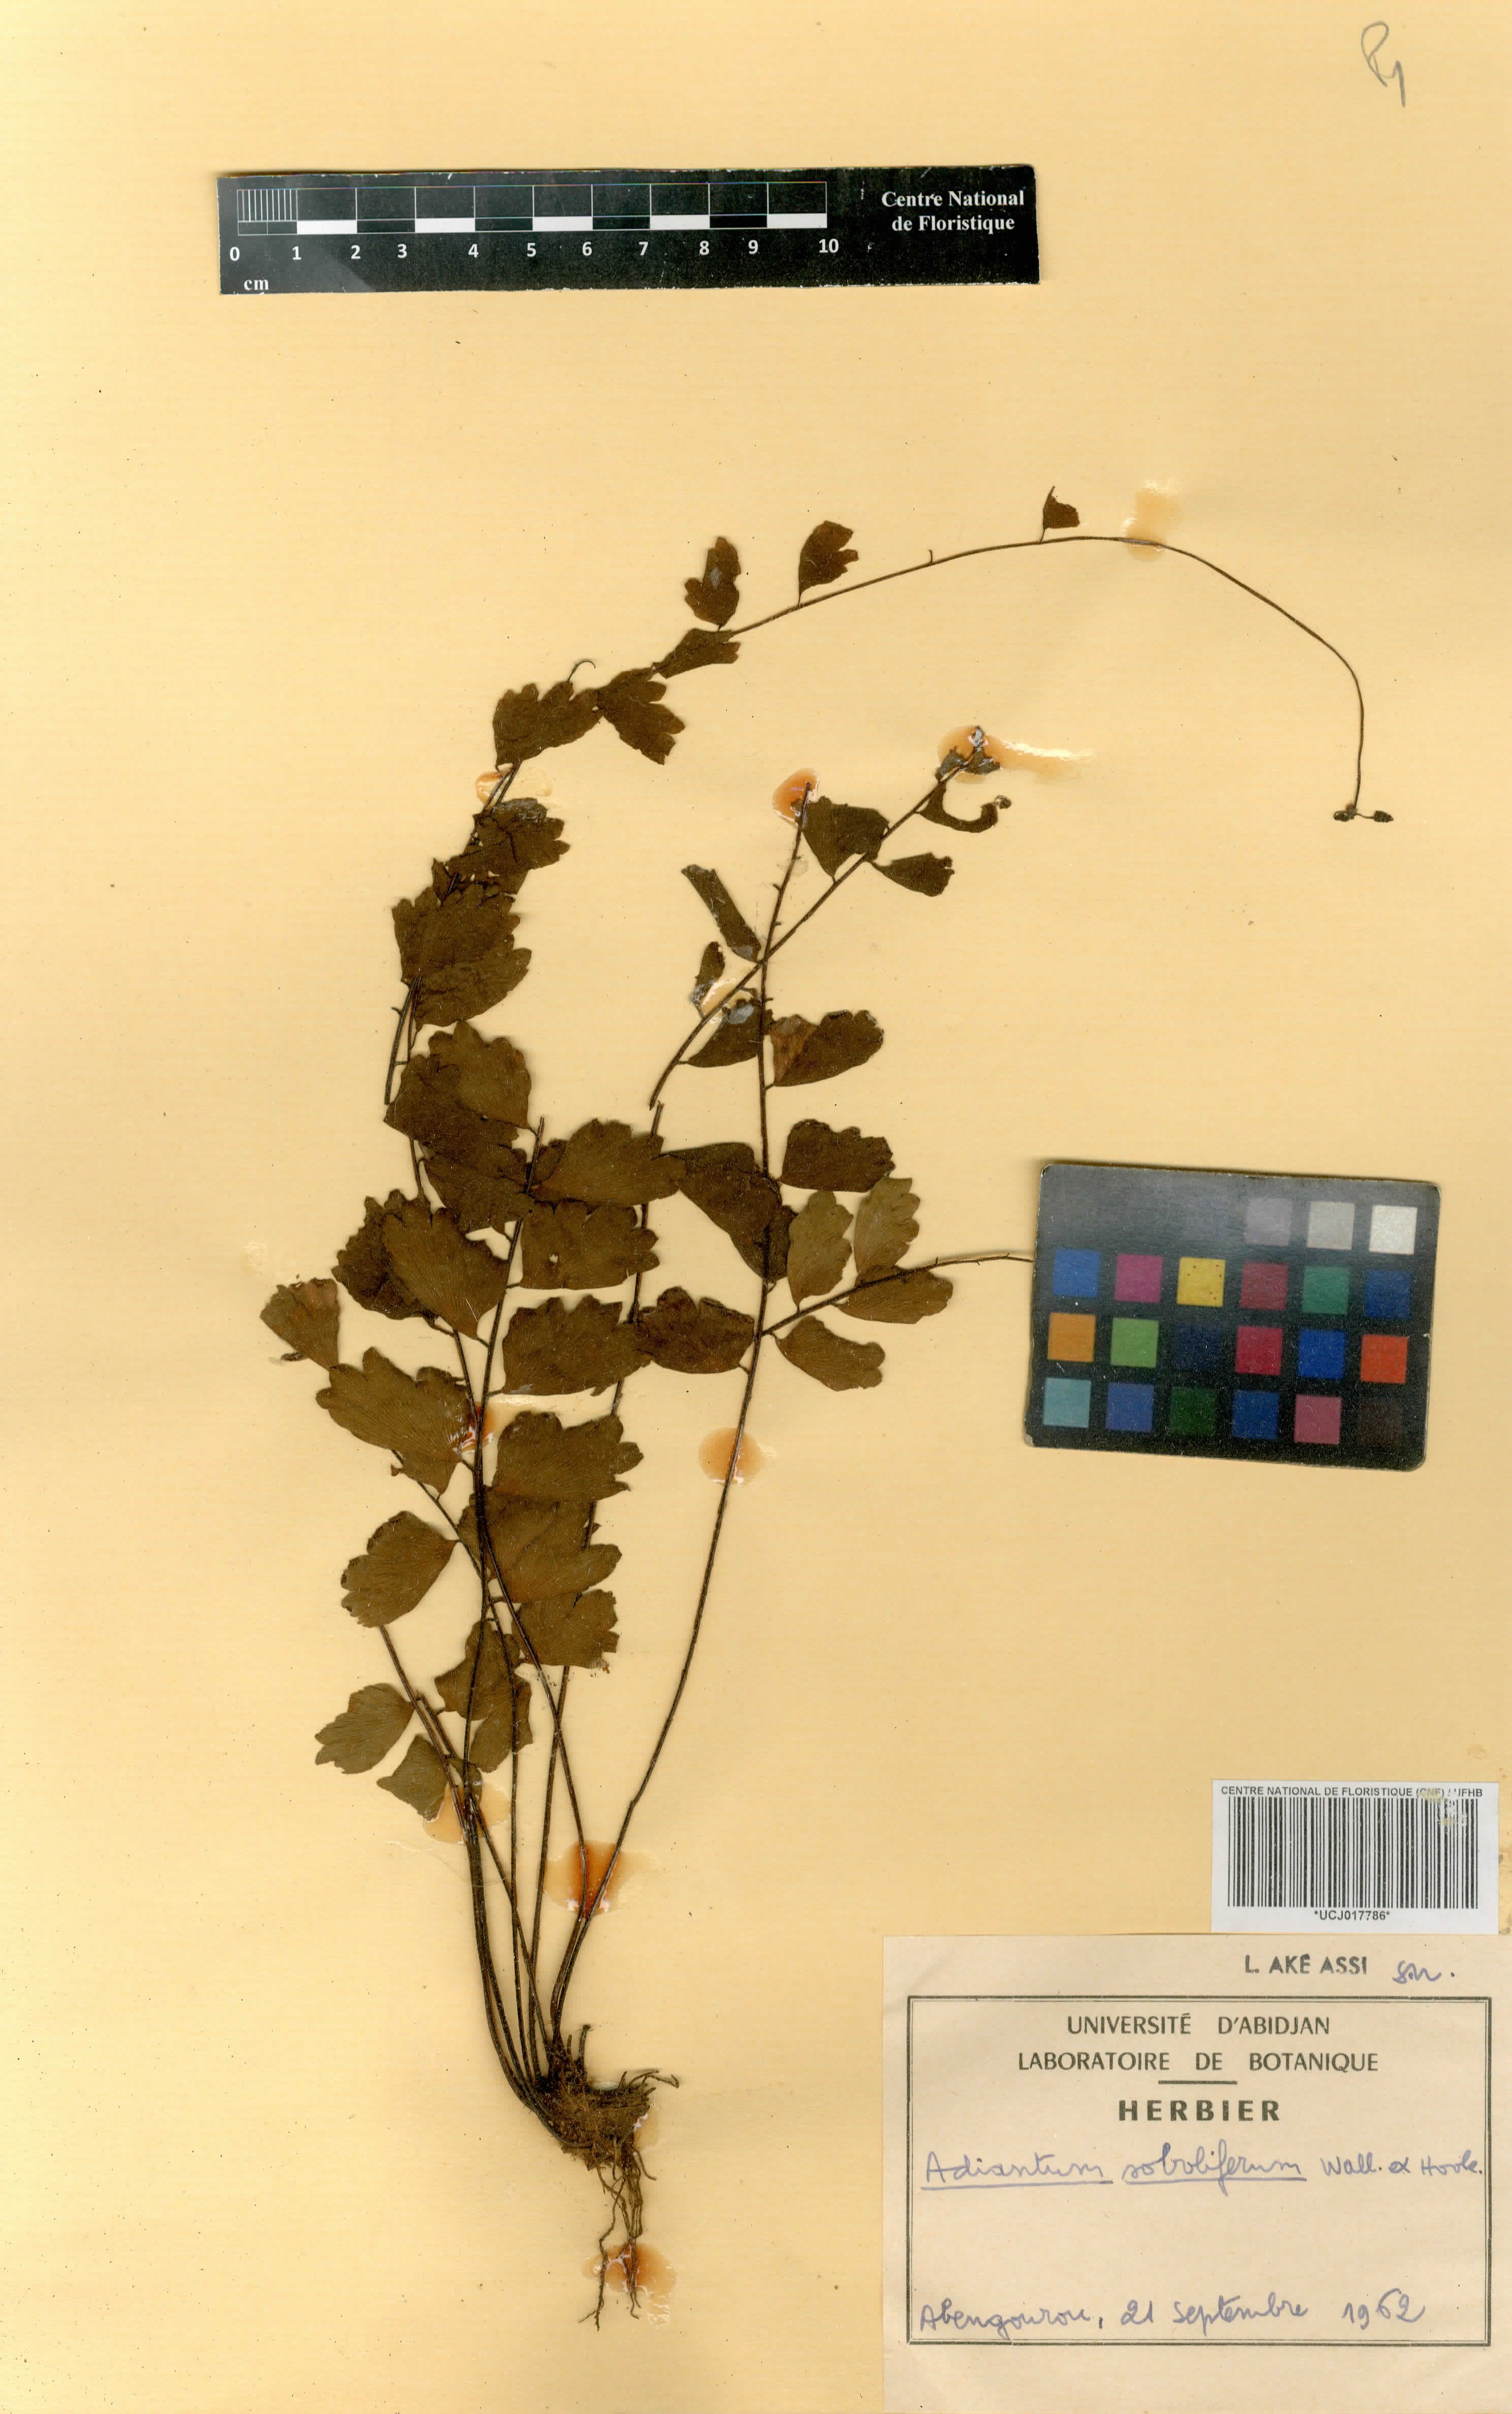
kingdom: Plantae
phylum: Tracheophyta
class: Polypodiopsida
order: Polypodiales
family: Pteridaceae
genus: Adiantum
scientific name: Adiantum soboliferum
